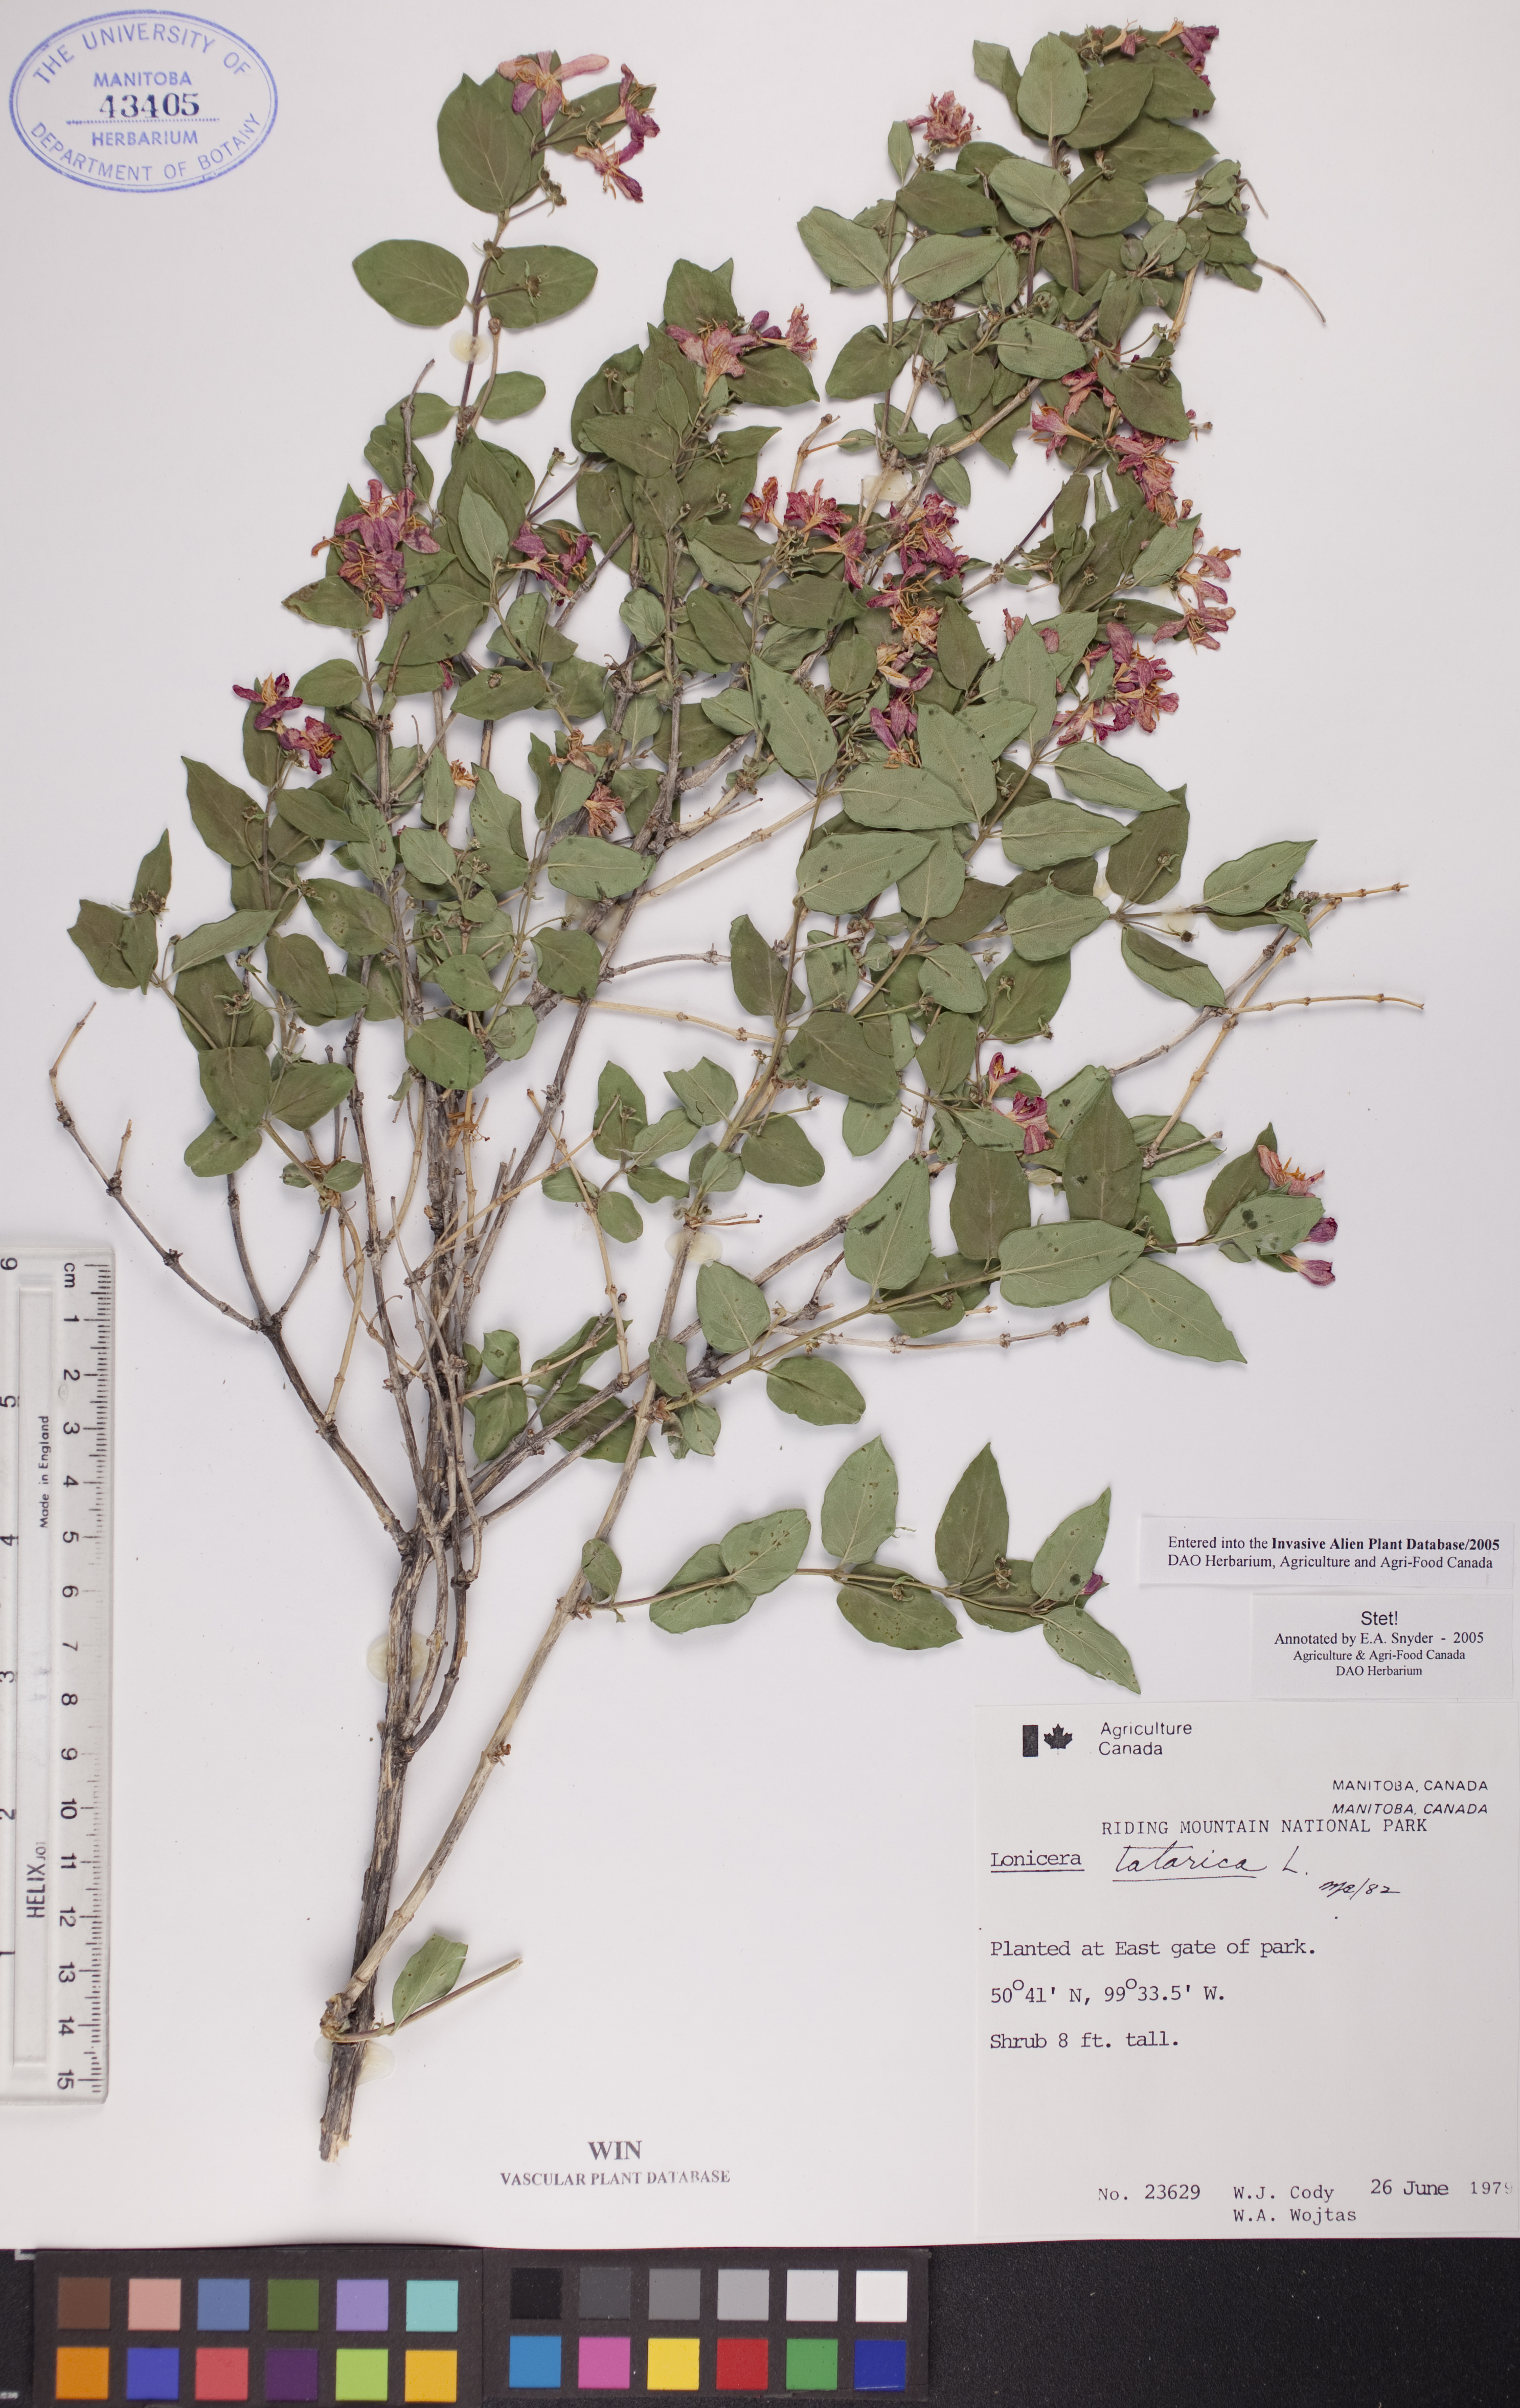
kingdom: Plantae
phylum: Tracheophyta
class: Magnoliopsida
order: Dipsacales
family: Caprifoliaceae
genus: Lonicera
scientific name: Lonicera tatarica
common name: Tatarian honeysuckle
